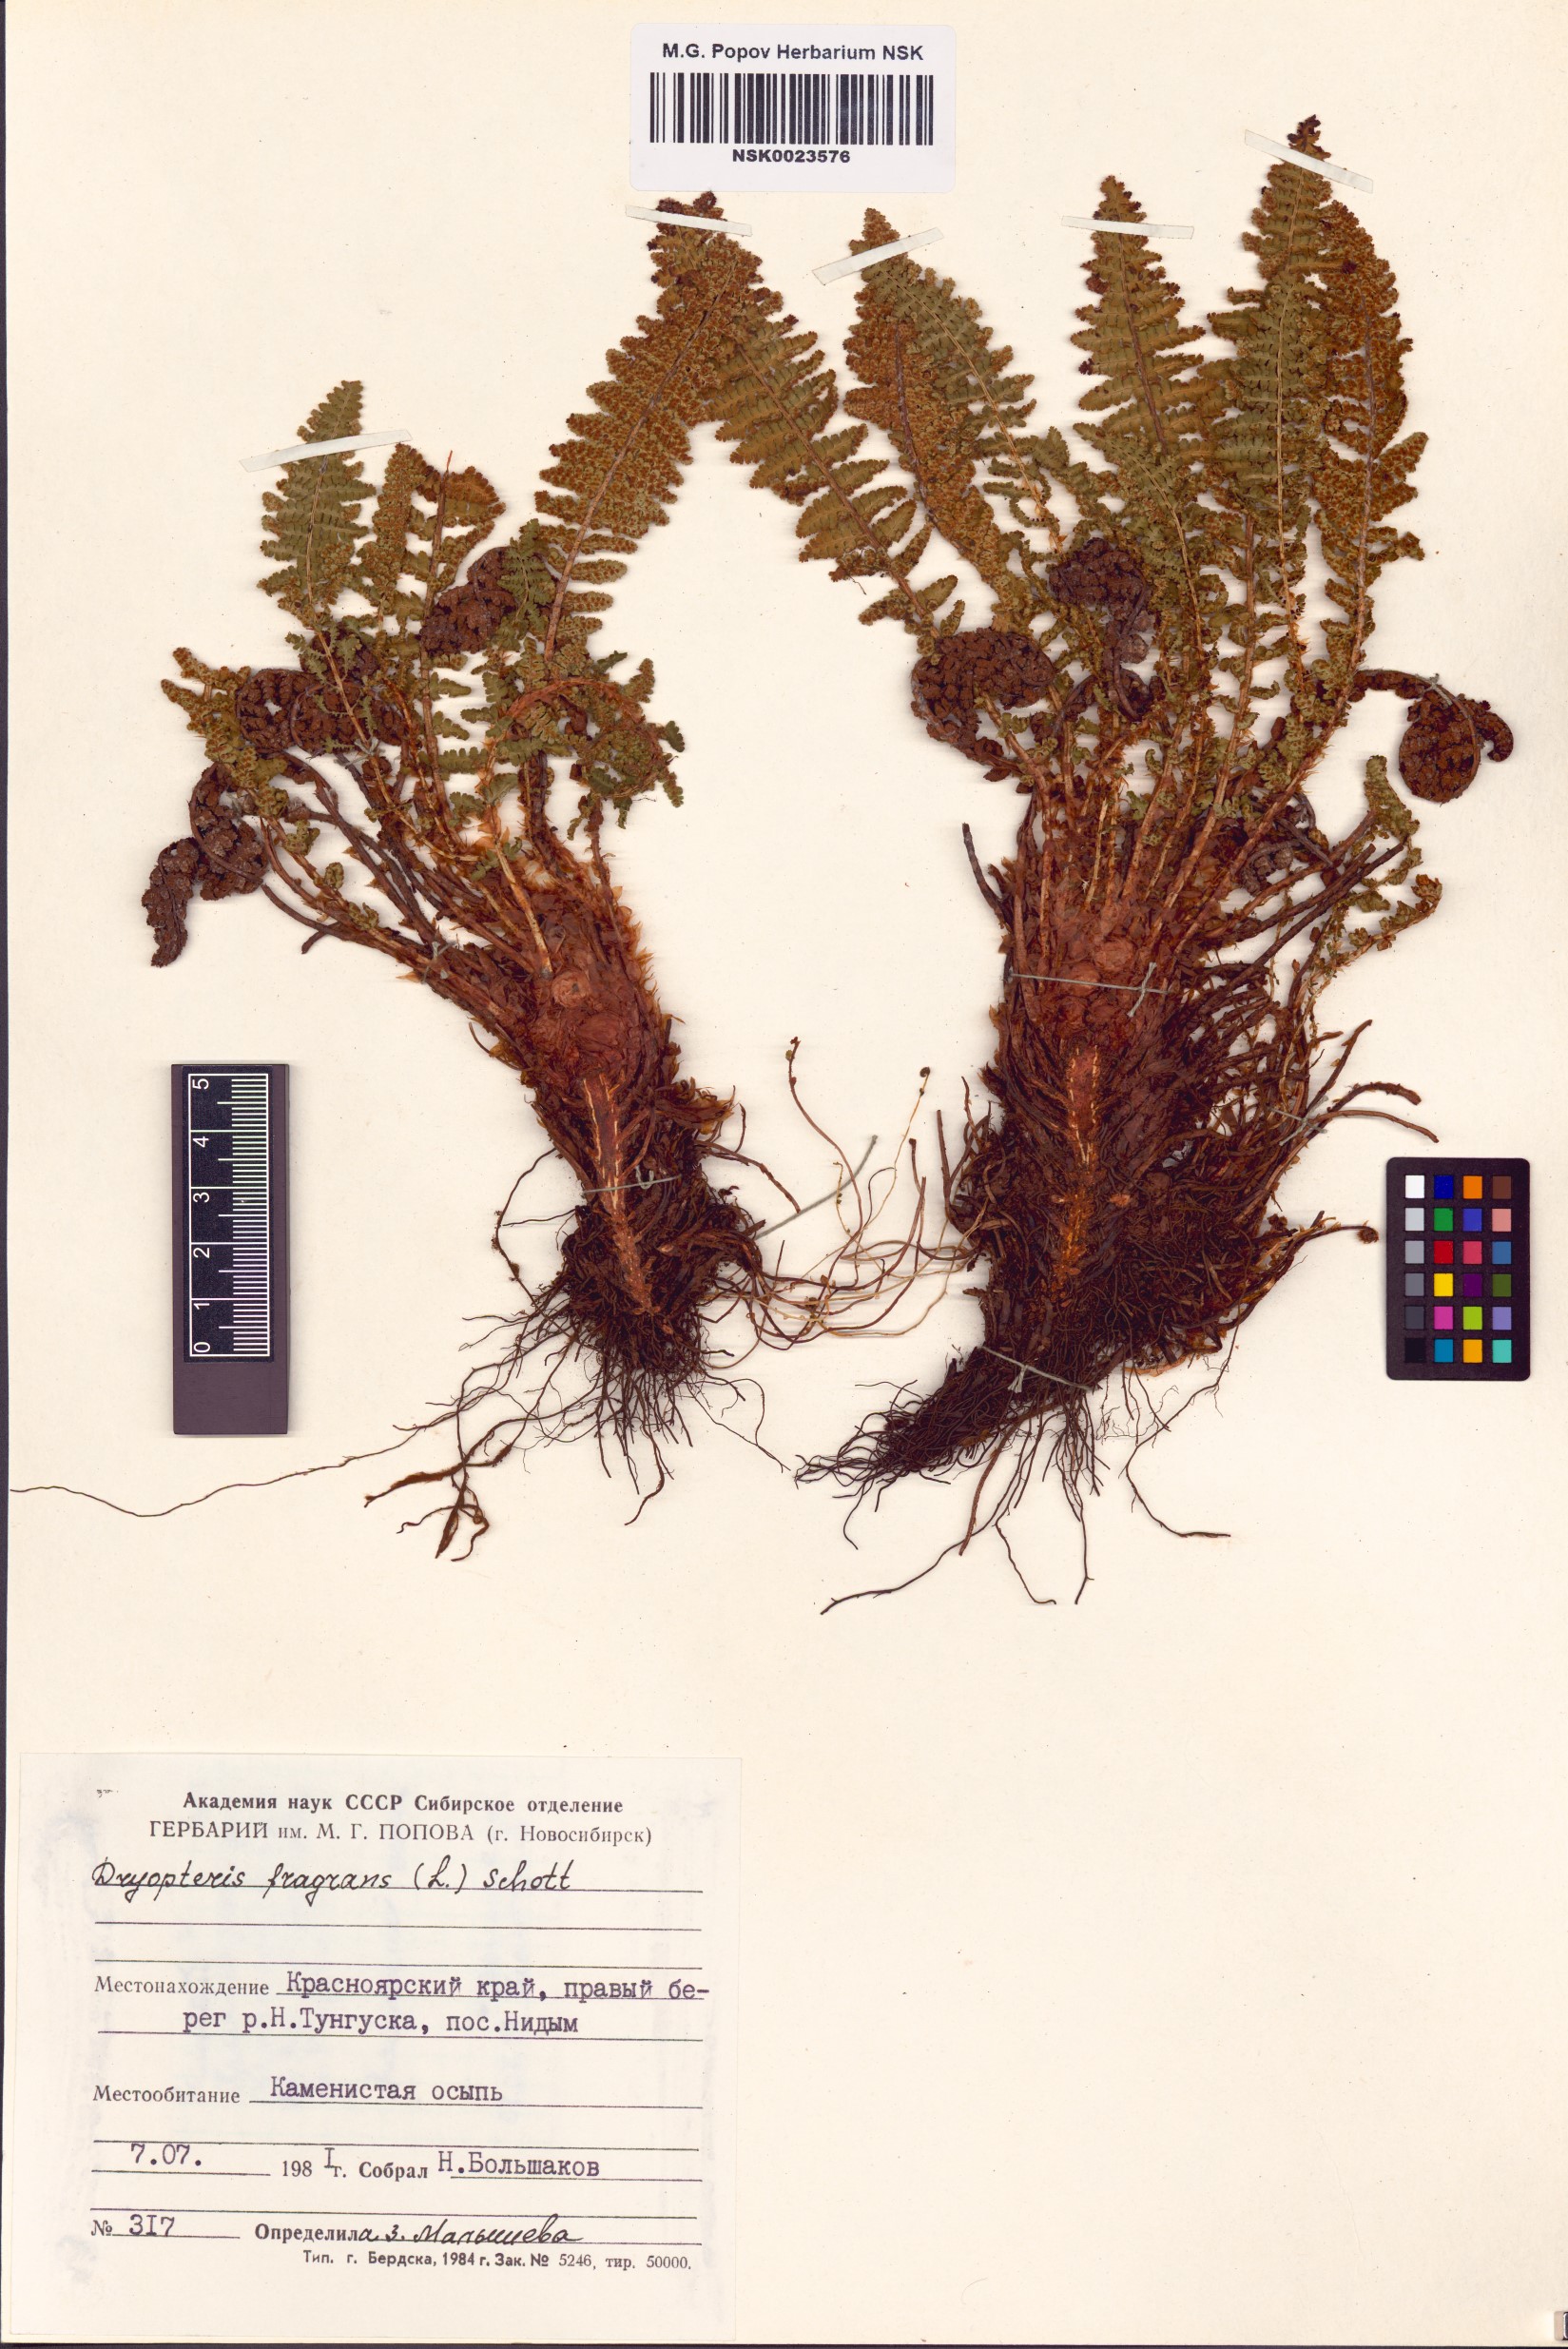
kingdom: Plantae
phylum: Tracheophyta
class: Polypodiopsida
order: Polypodiales
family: Dryopteridaceae
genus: Dryopteris
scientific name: Dryopteris fragrans
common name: Fragrant wood fern
